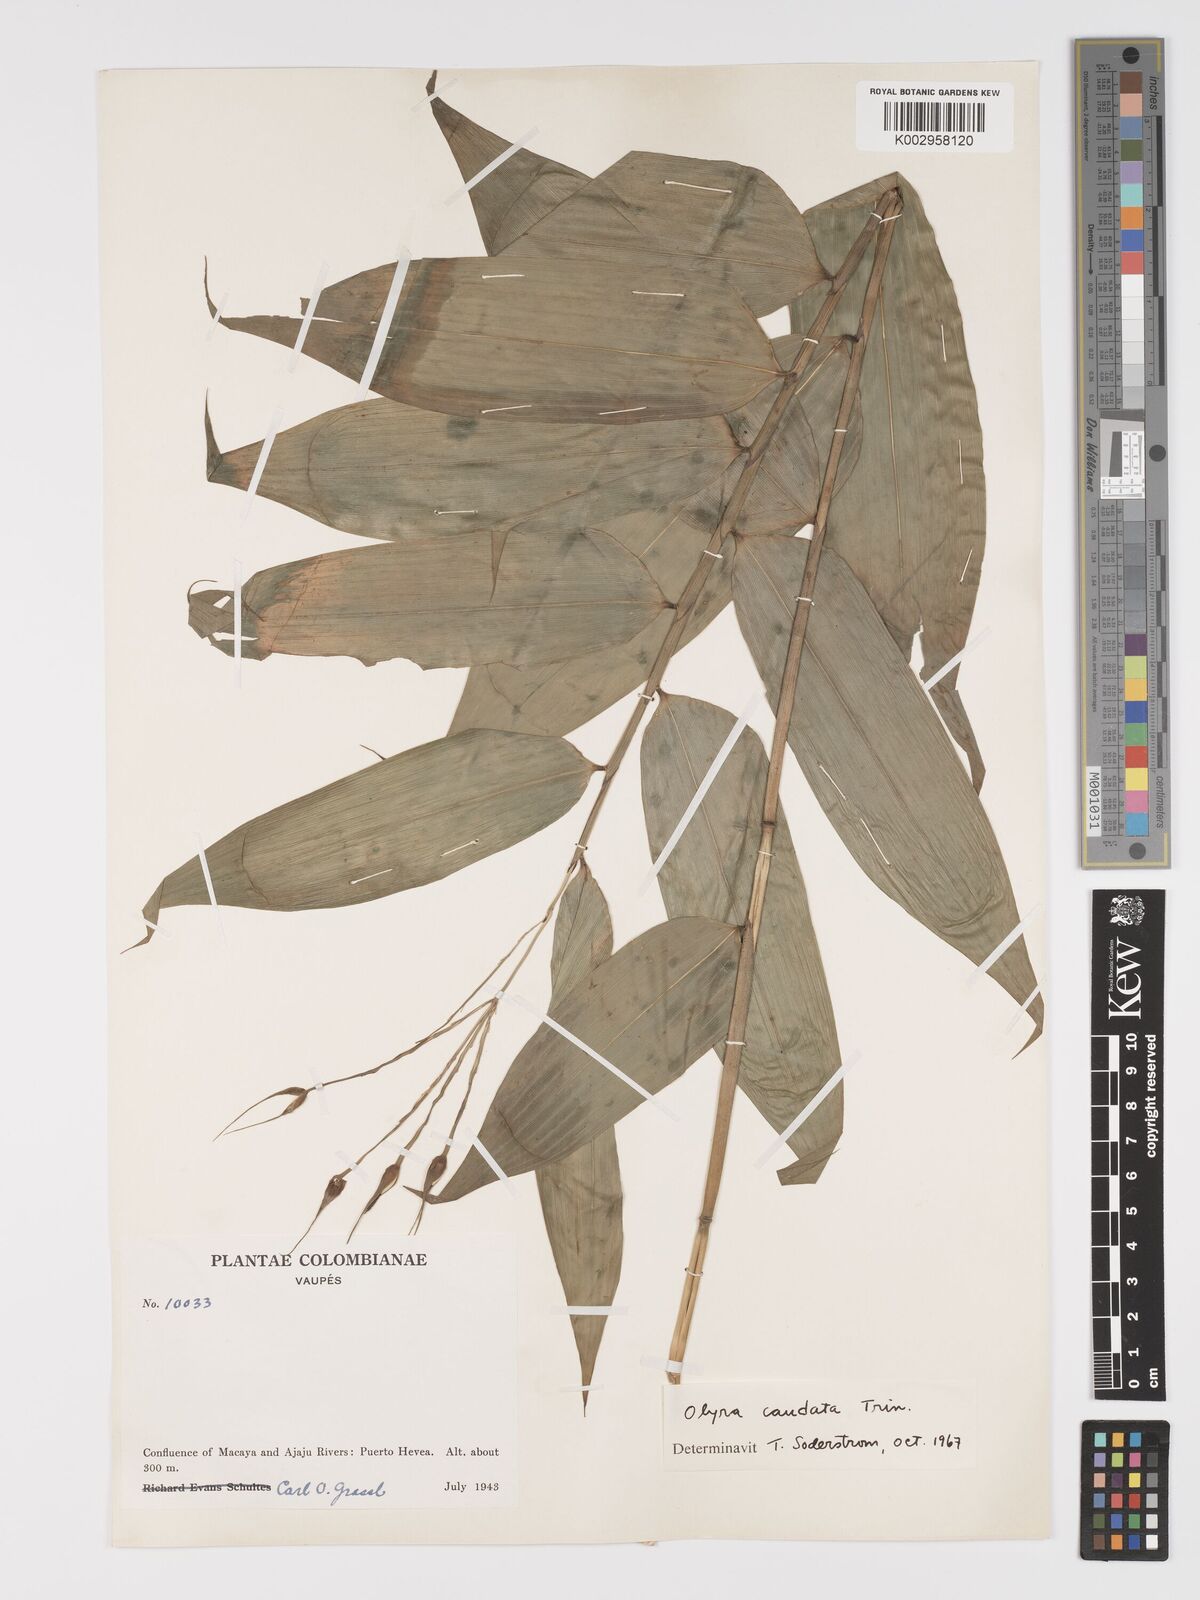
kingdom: Plantae
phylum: Tracheophyta
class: Liliopsida
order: Poales
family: Poaceae
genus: Olyra
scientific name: Olyra caudata
